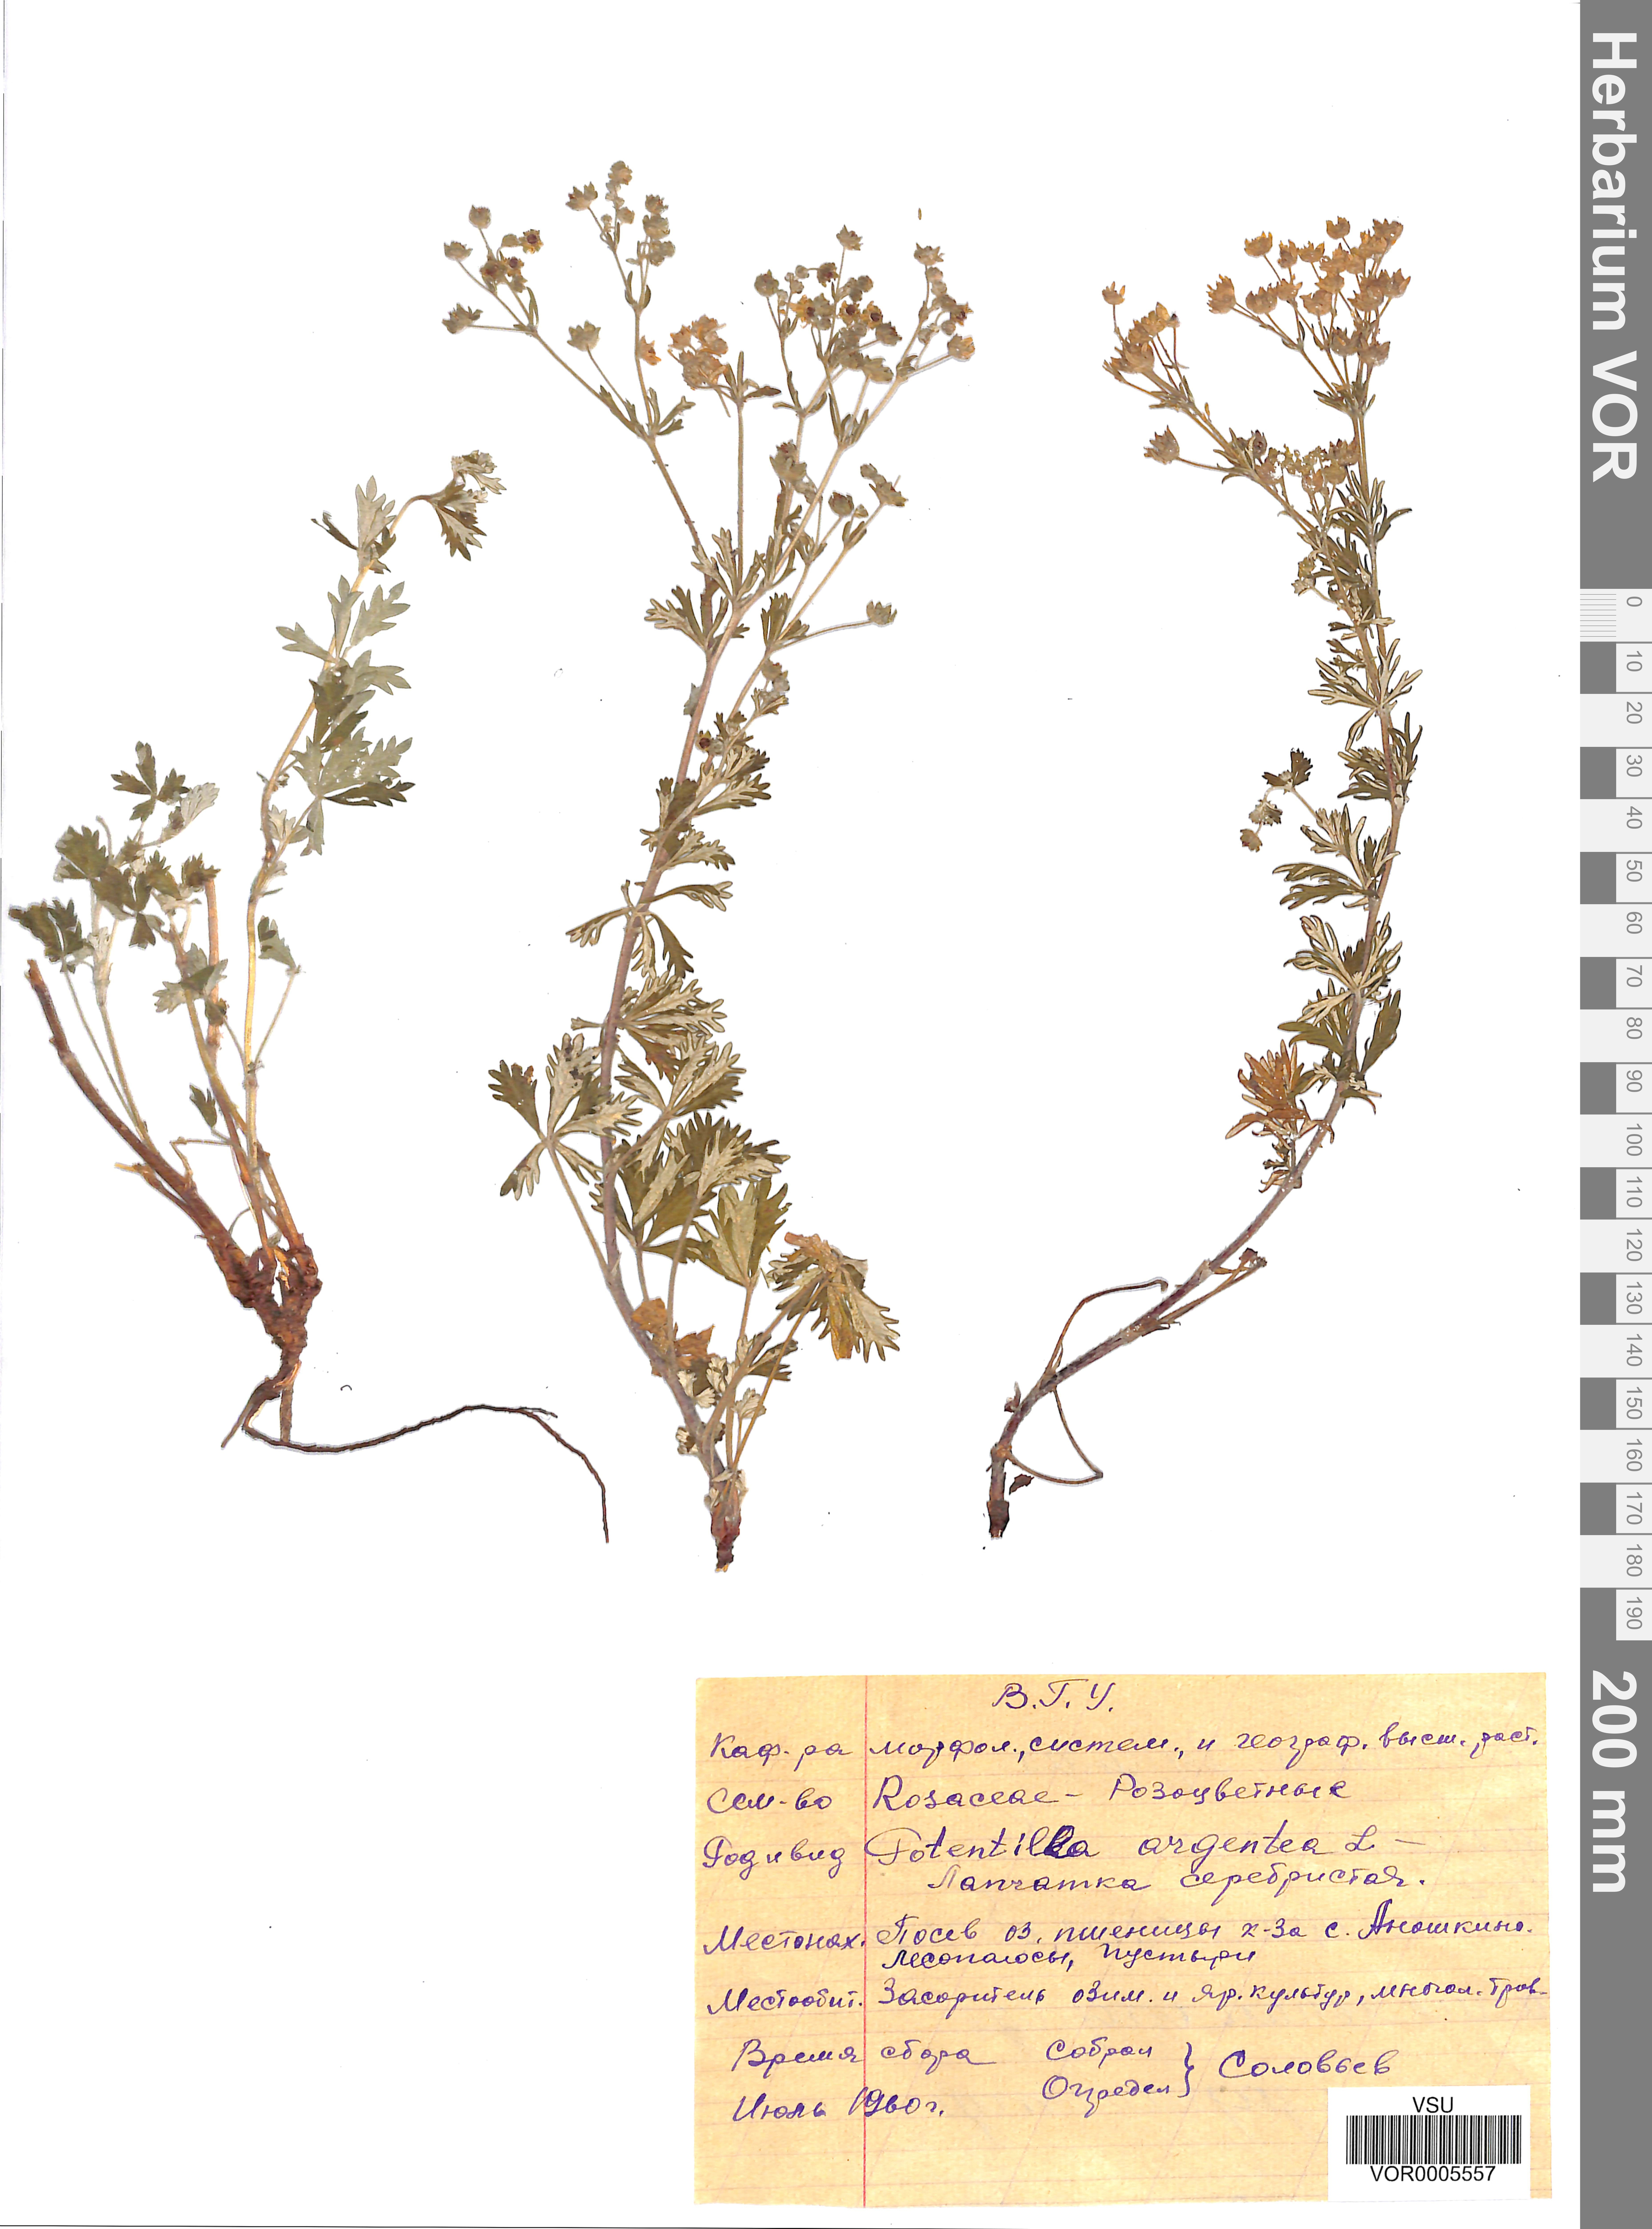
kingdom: Plantae
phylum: Tracheophyta
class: Magnoliopsida
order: Rosales
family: Rosaceae
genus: Potentilla
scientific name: Potentilla argentea
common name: Hoary cinquefoil
